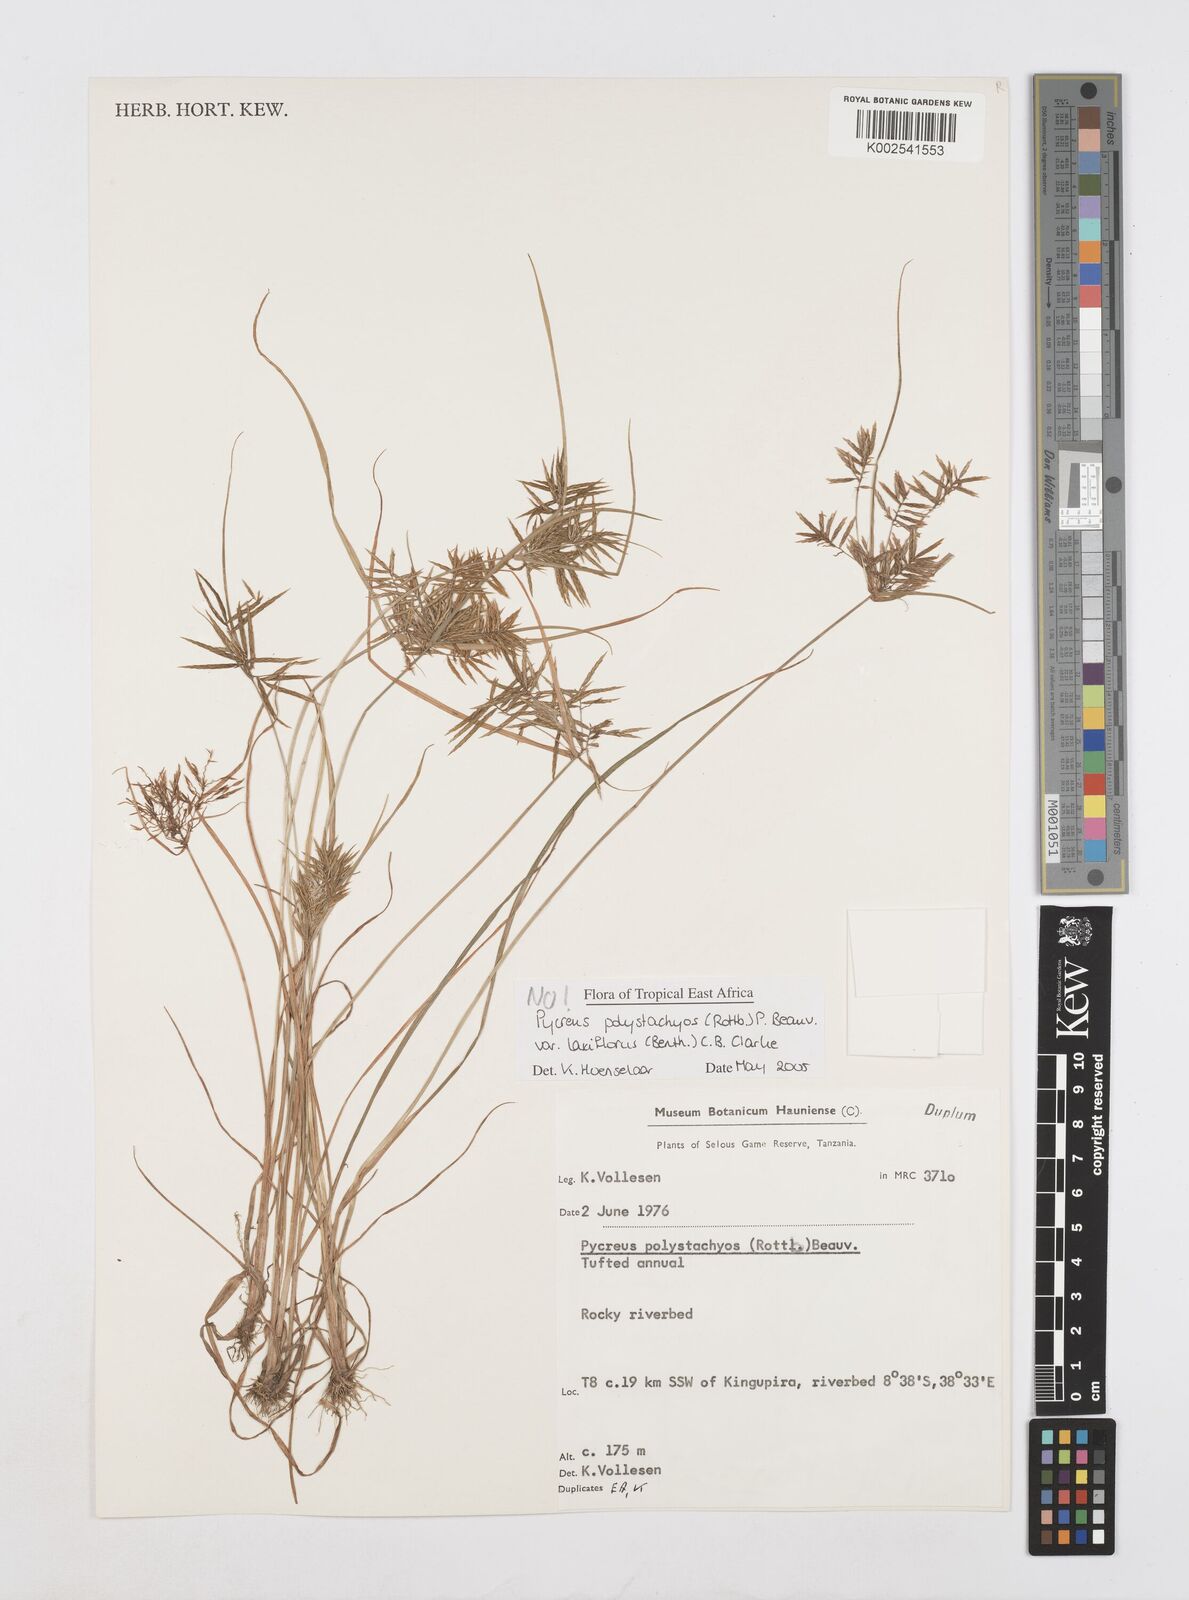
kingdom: Plantae
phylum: Tracheophyta
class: Liliopsida
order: Poales
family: Cyperaceae
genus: Cyperus
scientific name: Cyperus intactus
